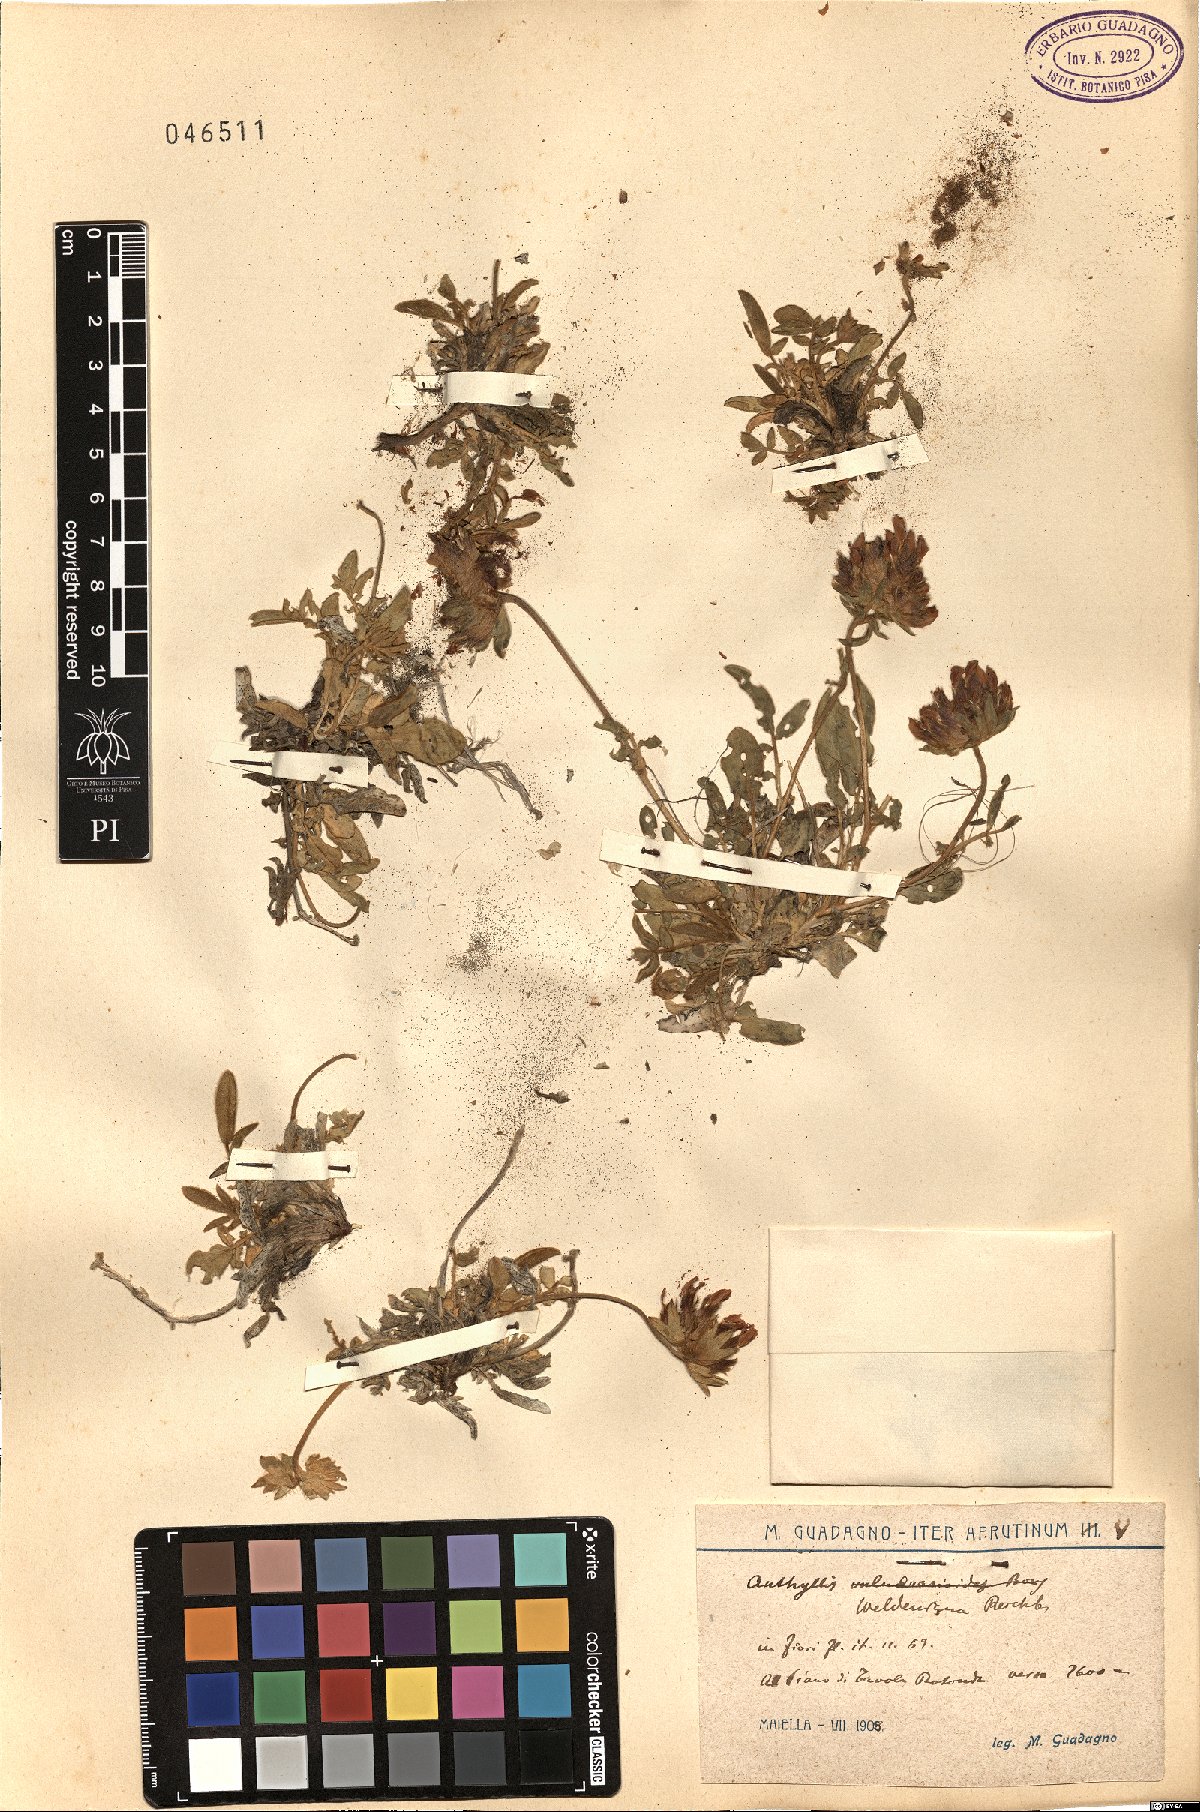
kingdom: Plantae
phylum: Tracheophyta
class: Magnoliopsida
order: Fabales
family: Fabaceae
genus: Anthyllis
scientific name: Anthyllis vulneraria
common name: Kidney vetch
